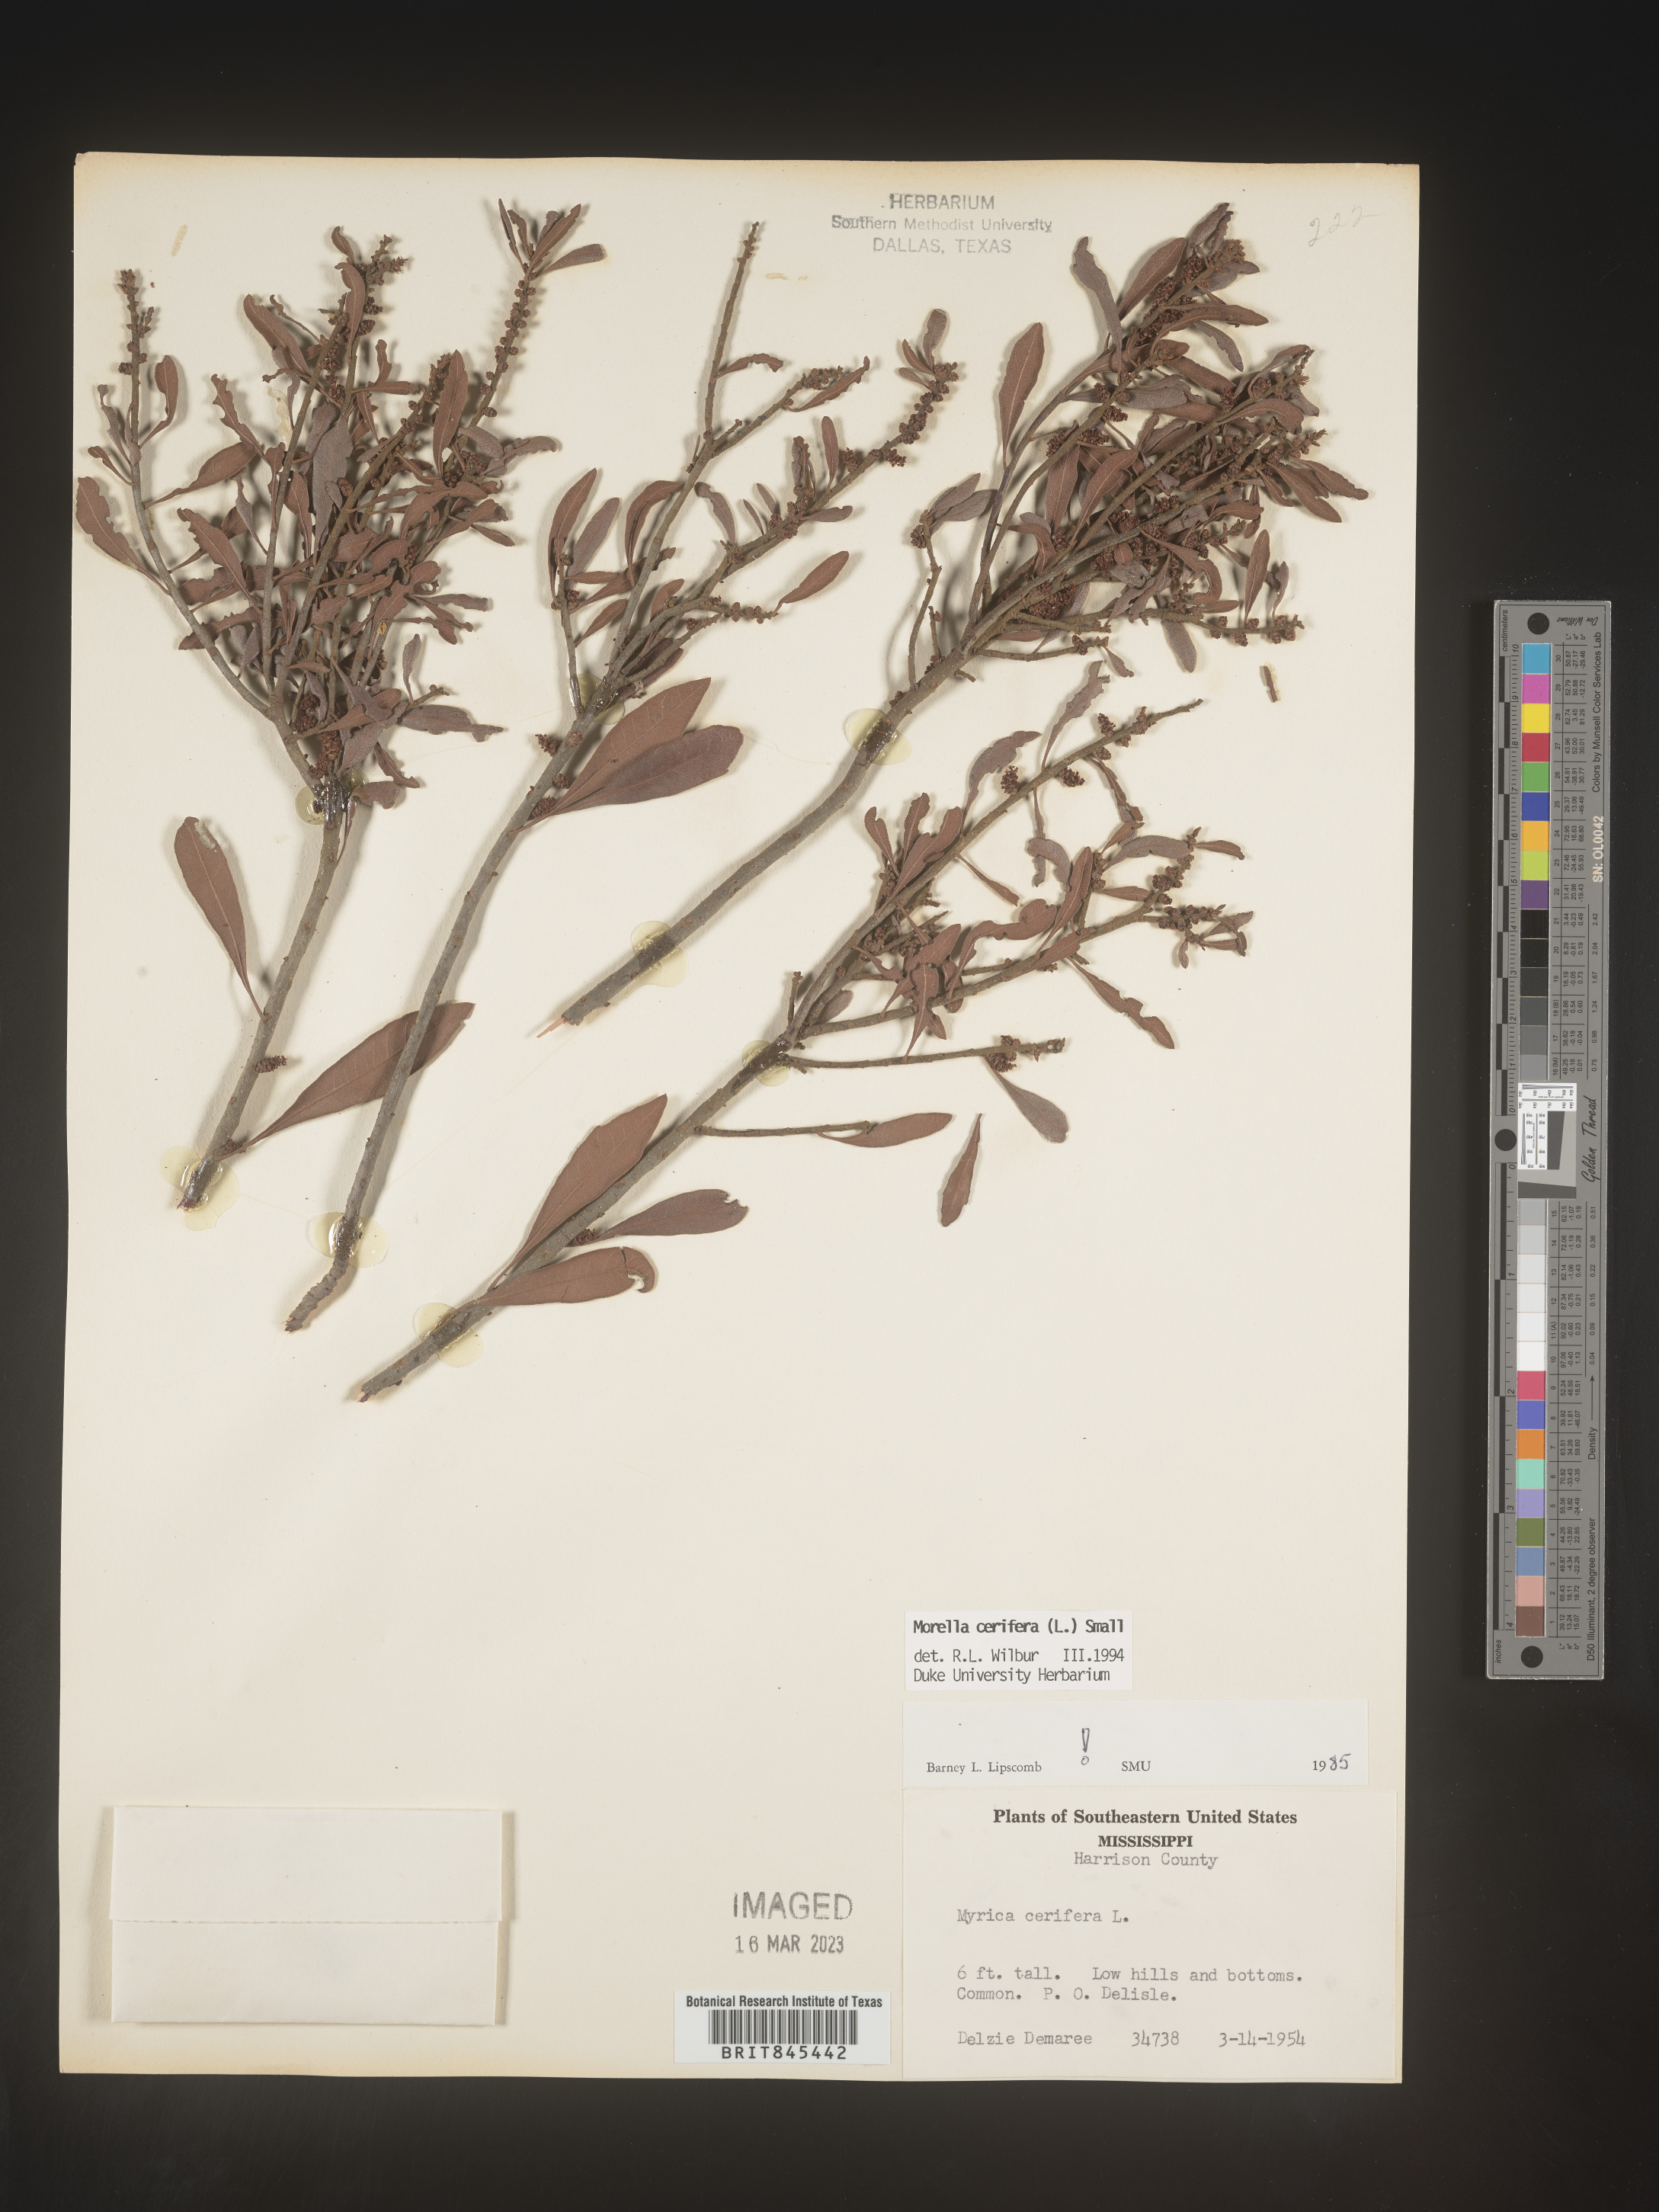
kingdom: Plantae
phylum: Tracheophyta
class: Magnoliopsida
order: Fagales
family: Myricaceae
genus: Morella
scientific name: Morella cerifera
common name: Wax myrtle
